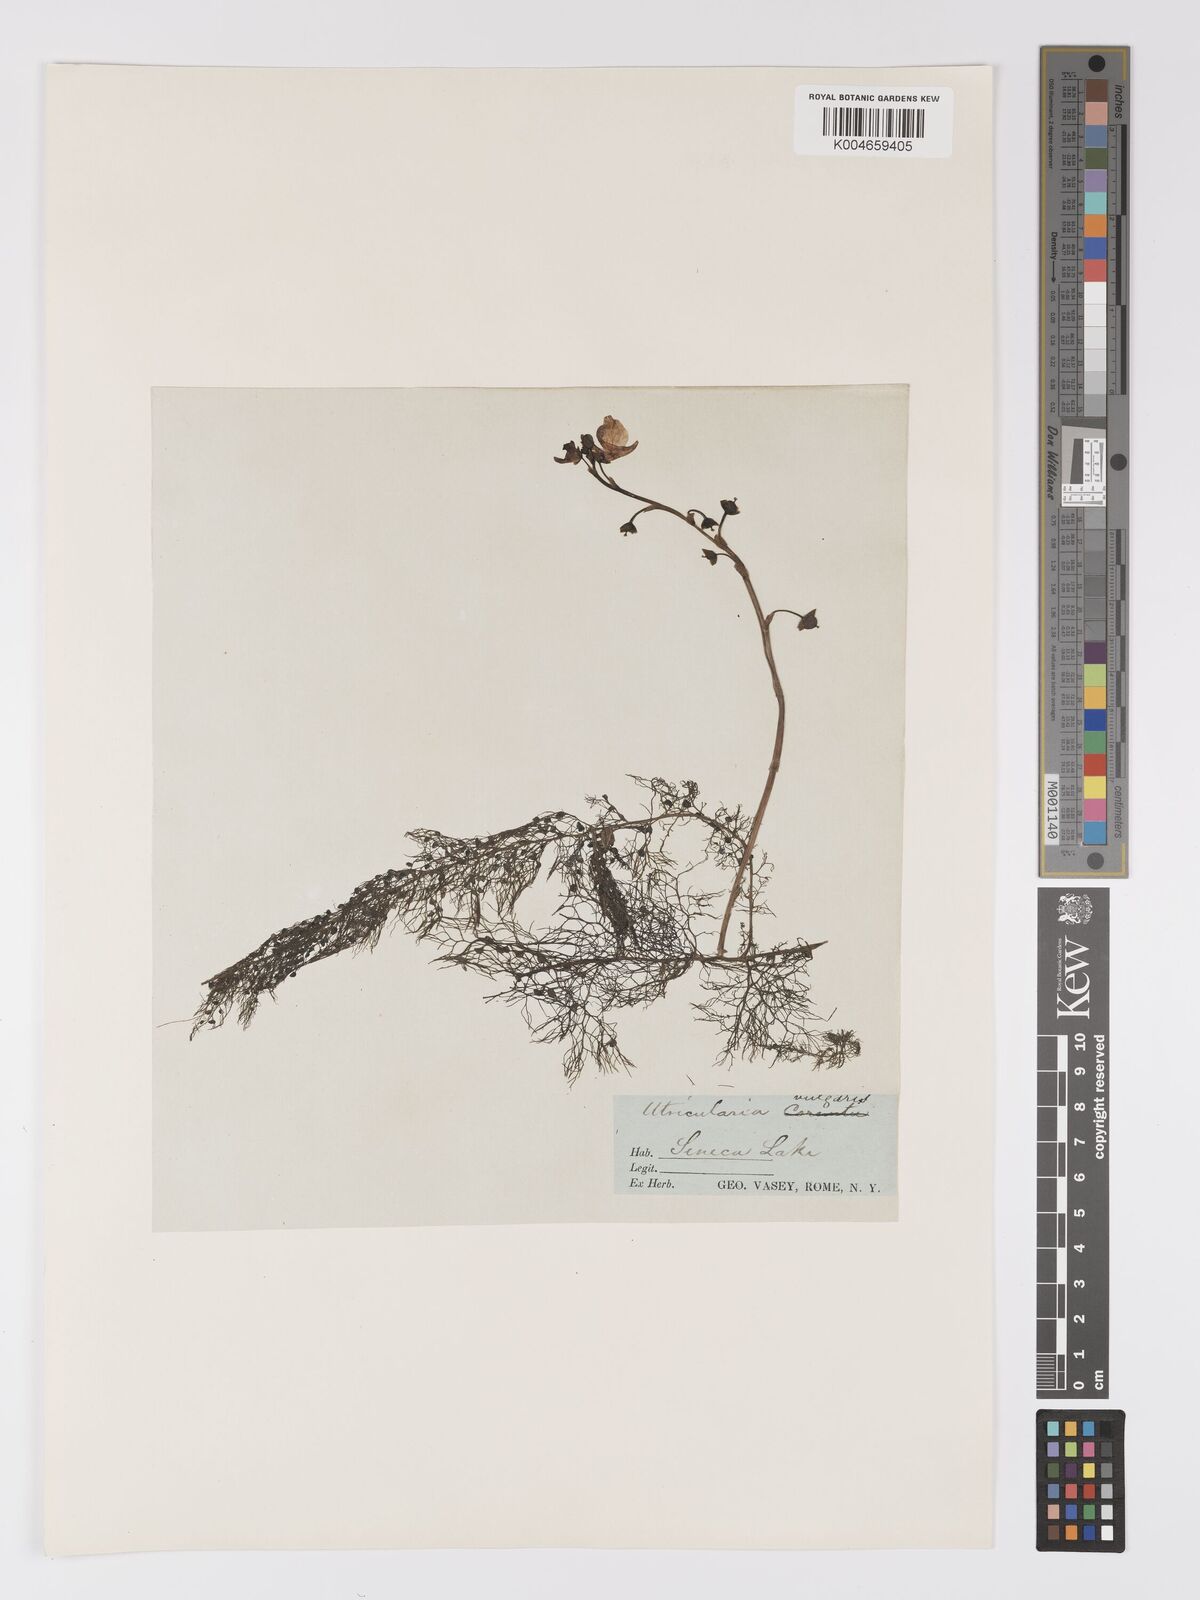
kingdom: Plantae
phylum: Tracheophyta
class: Magnoliopsida
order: Lamiales
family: Lentibulariaceae
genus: Utricularia
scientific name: Utricularia macrorhiza
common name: Common bladderwort
